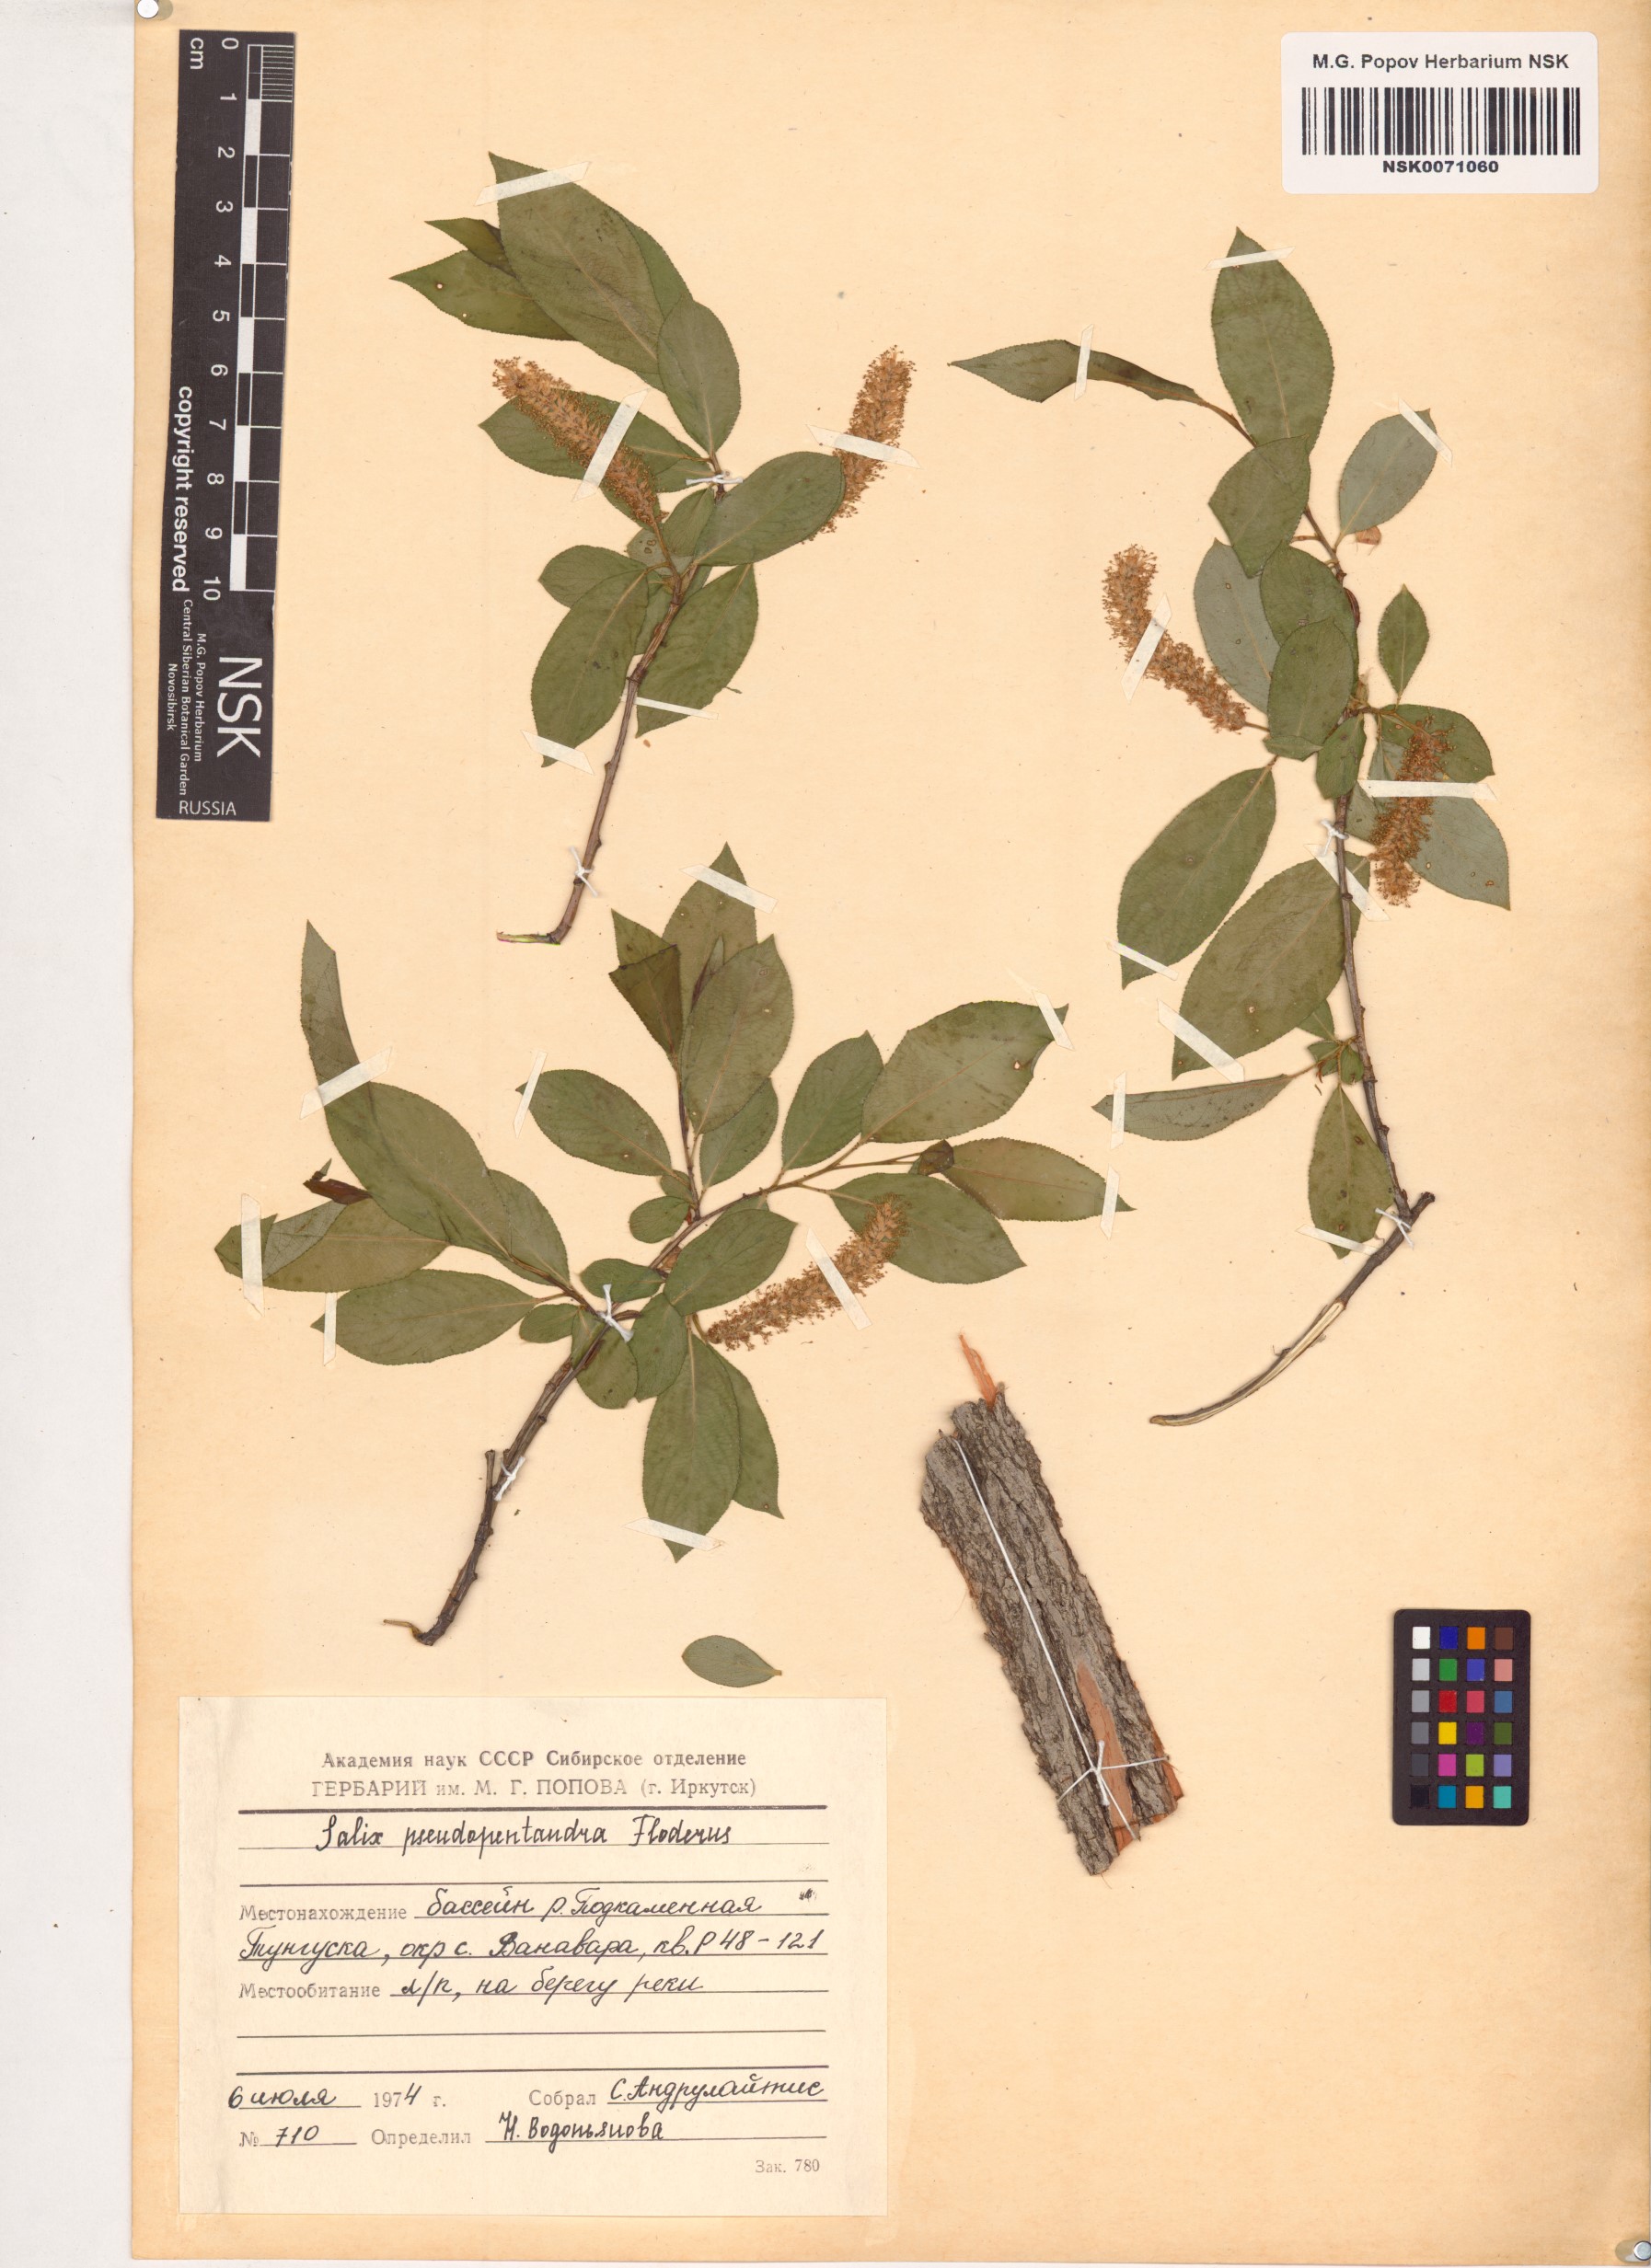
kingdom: Plantae
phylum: Tracheophyta
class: Magnoliopsida
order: Malpighiales
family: Salicaceae
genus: Salix
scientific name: Salix pseudopentandra
